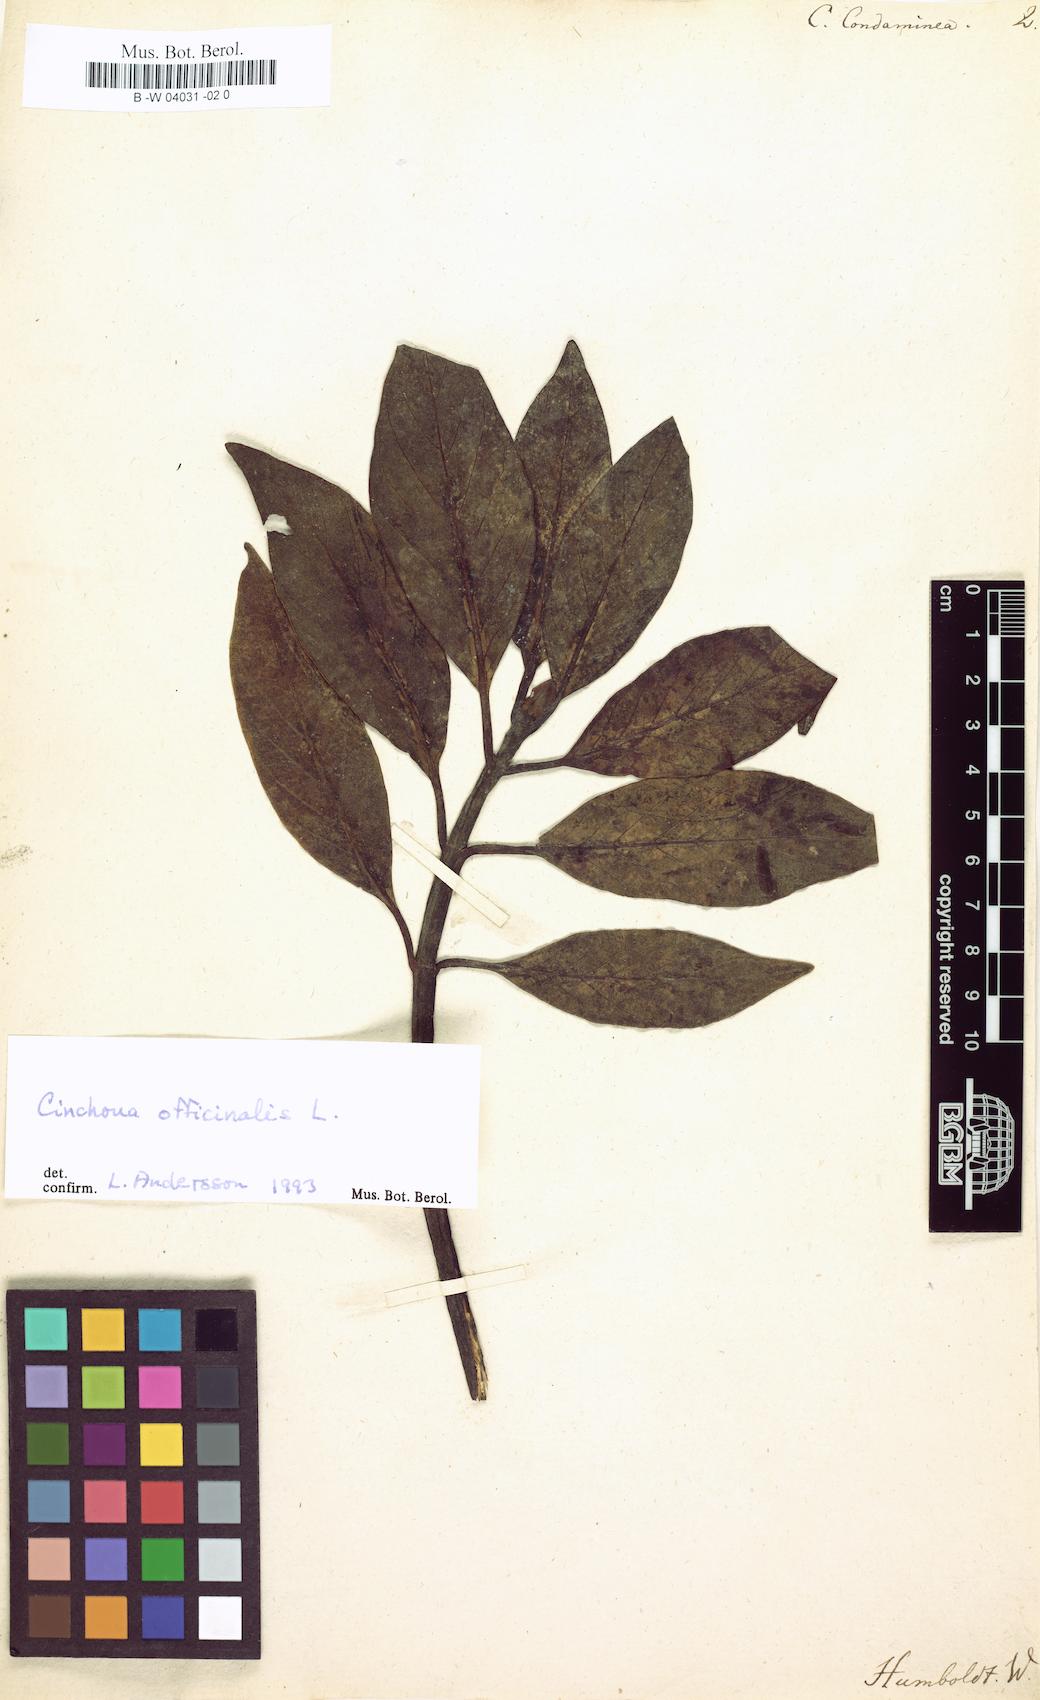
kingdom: Plantae
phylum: Tracheophyta
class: Magnoliopsida
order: Gentianales
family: Rubiaceae
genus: Cinchona
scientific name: Cinchona officinalis
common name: Lojabark
